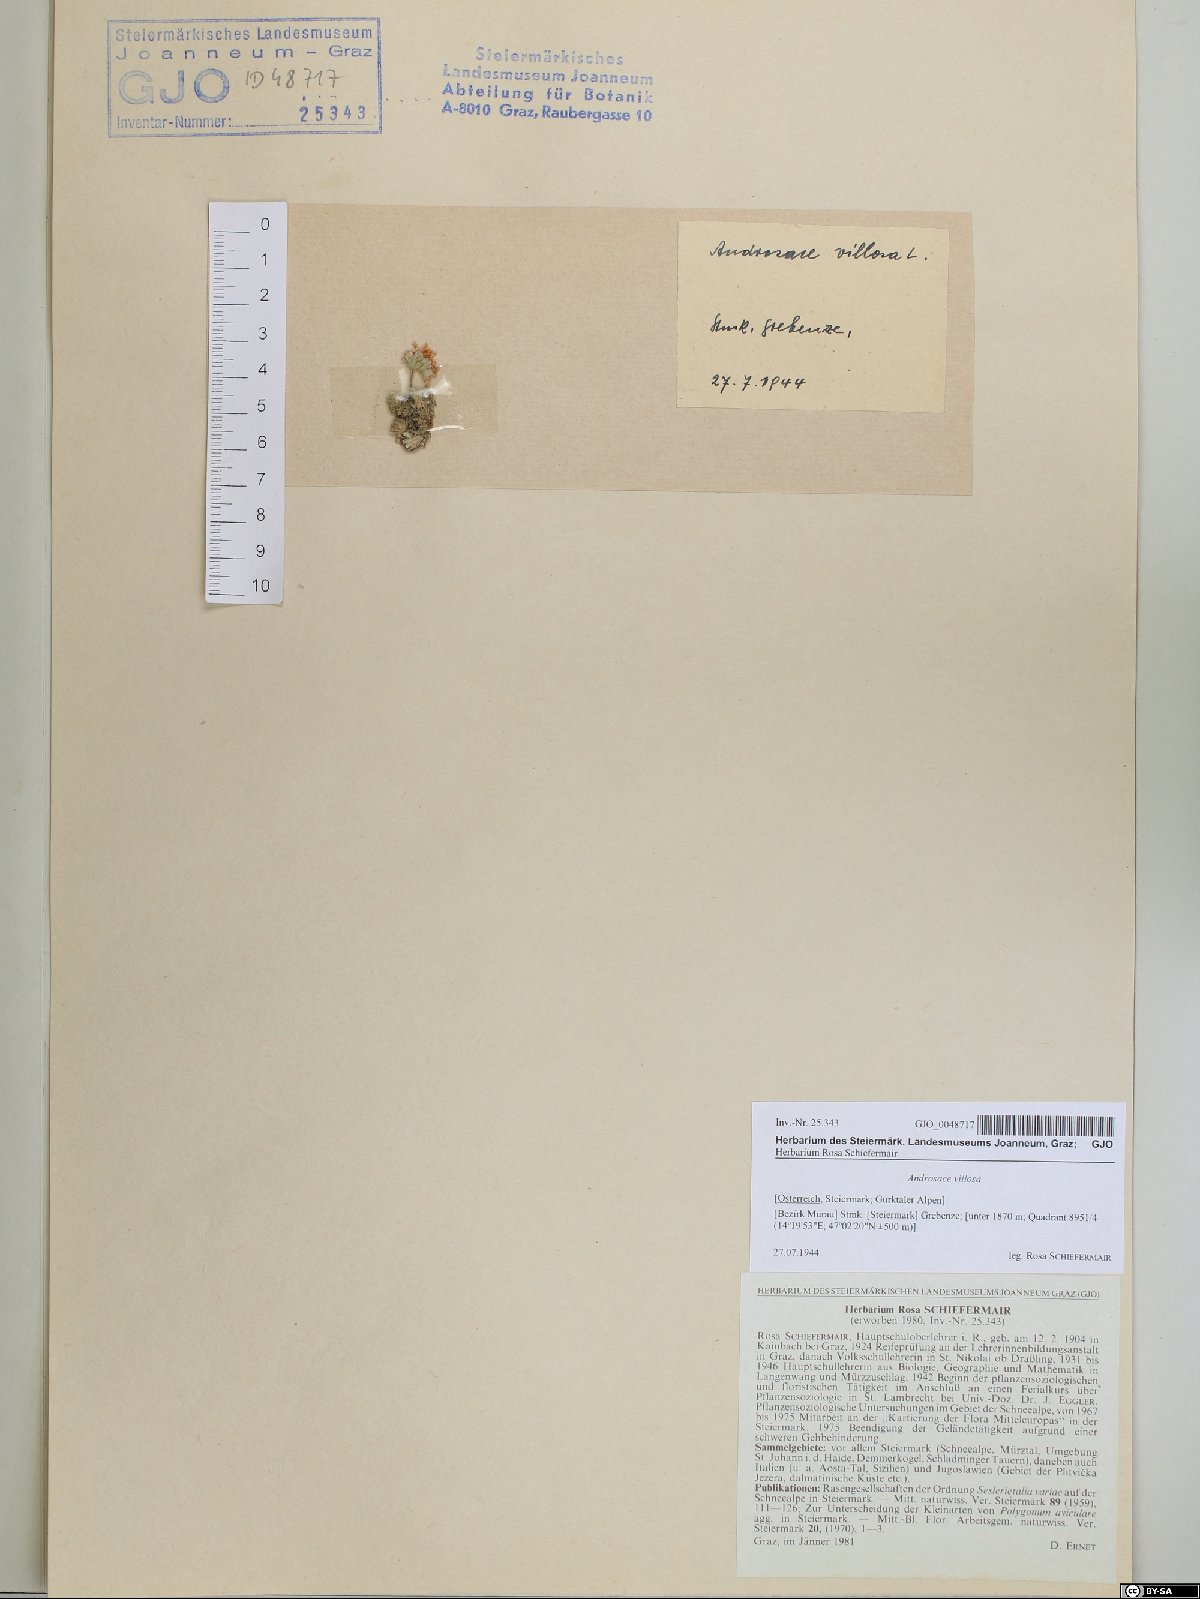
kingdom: Plantae
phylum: Tracheophyta
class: Magnoliopsida
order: Ericales
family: Primulaceae
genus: Androsace
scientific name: Androsace villosa
